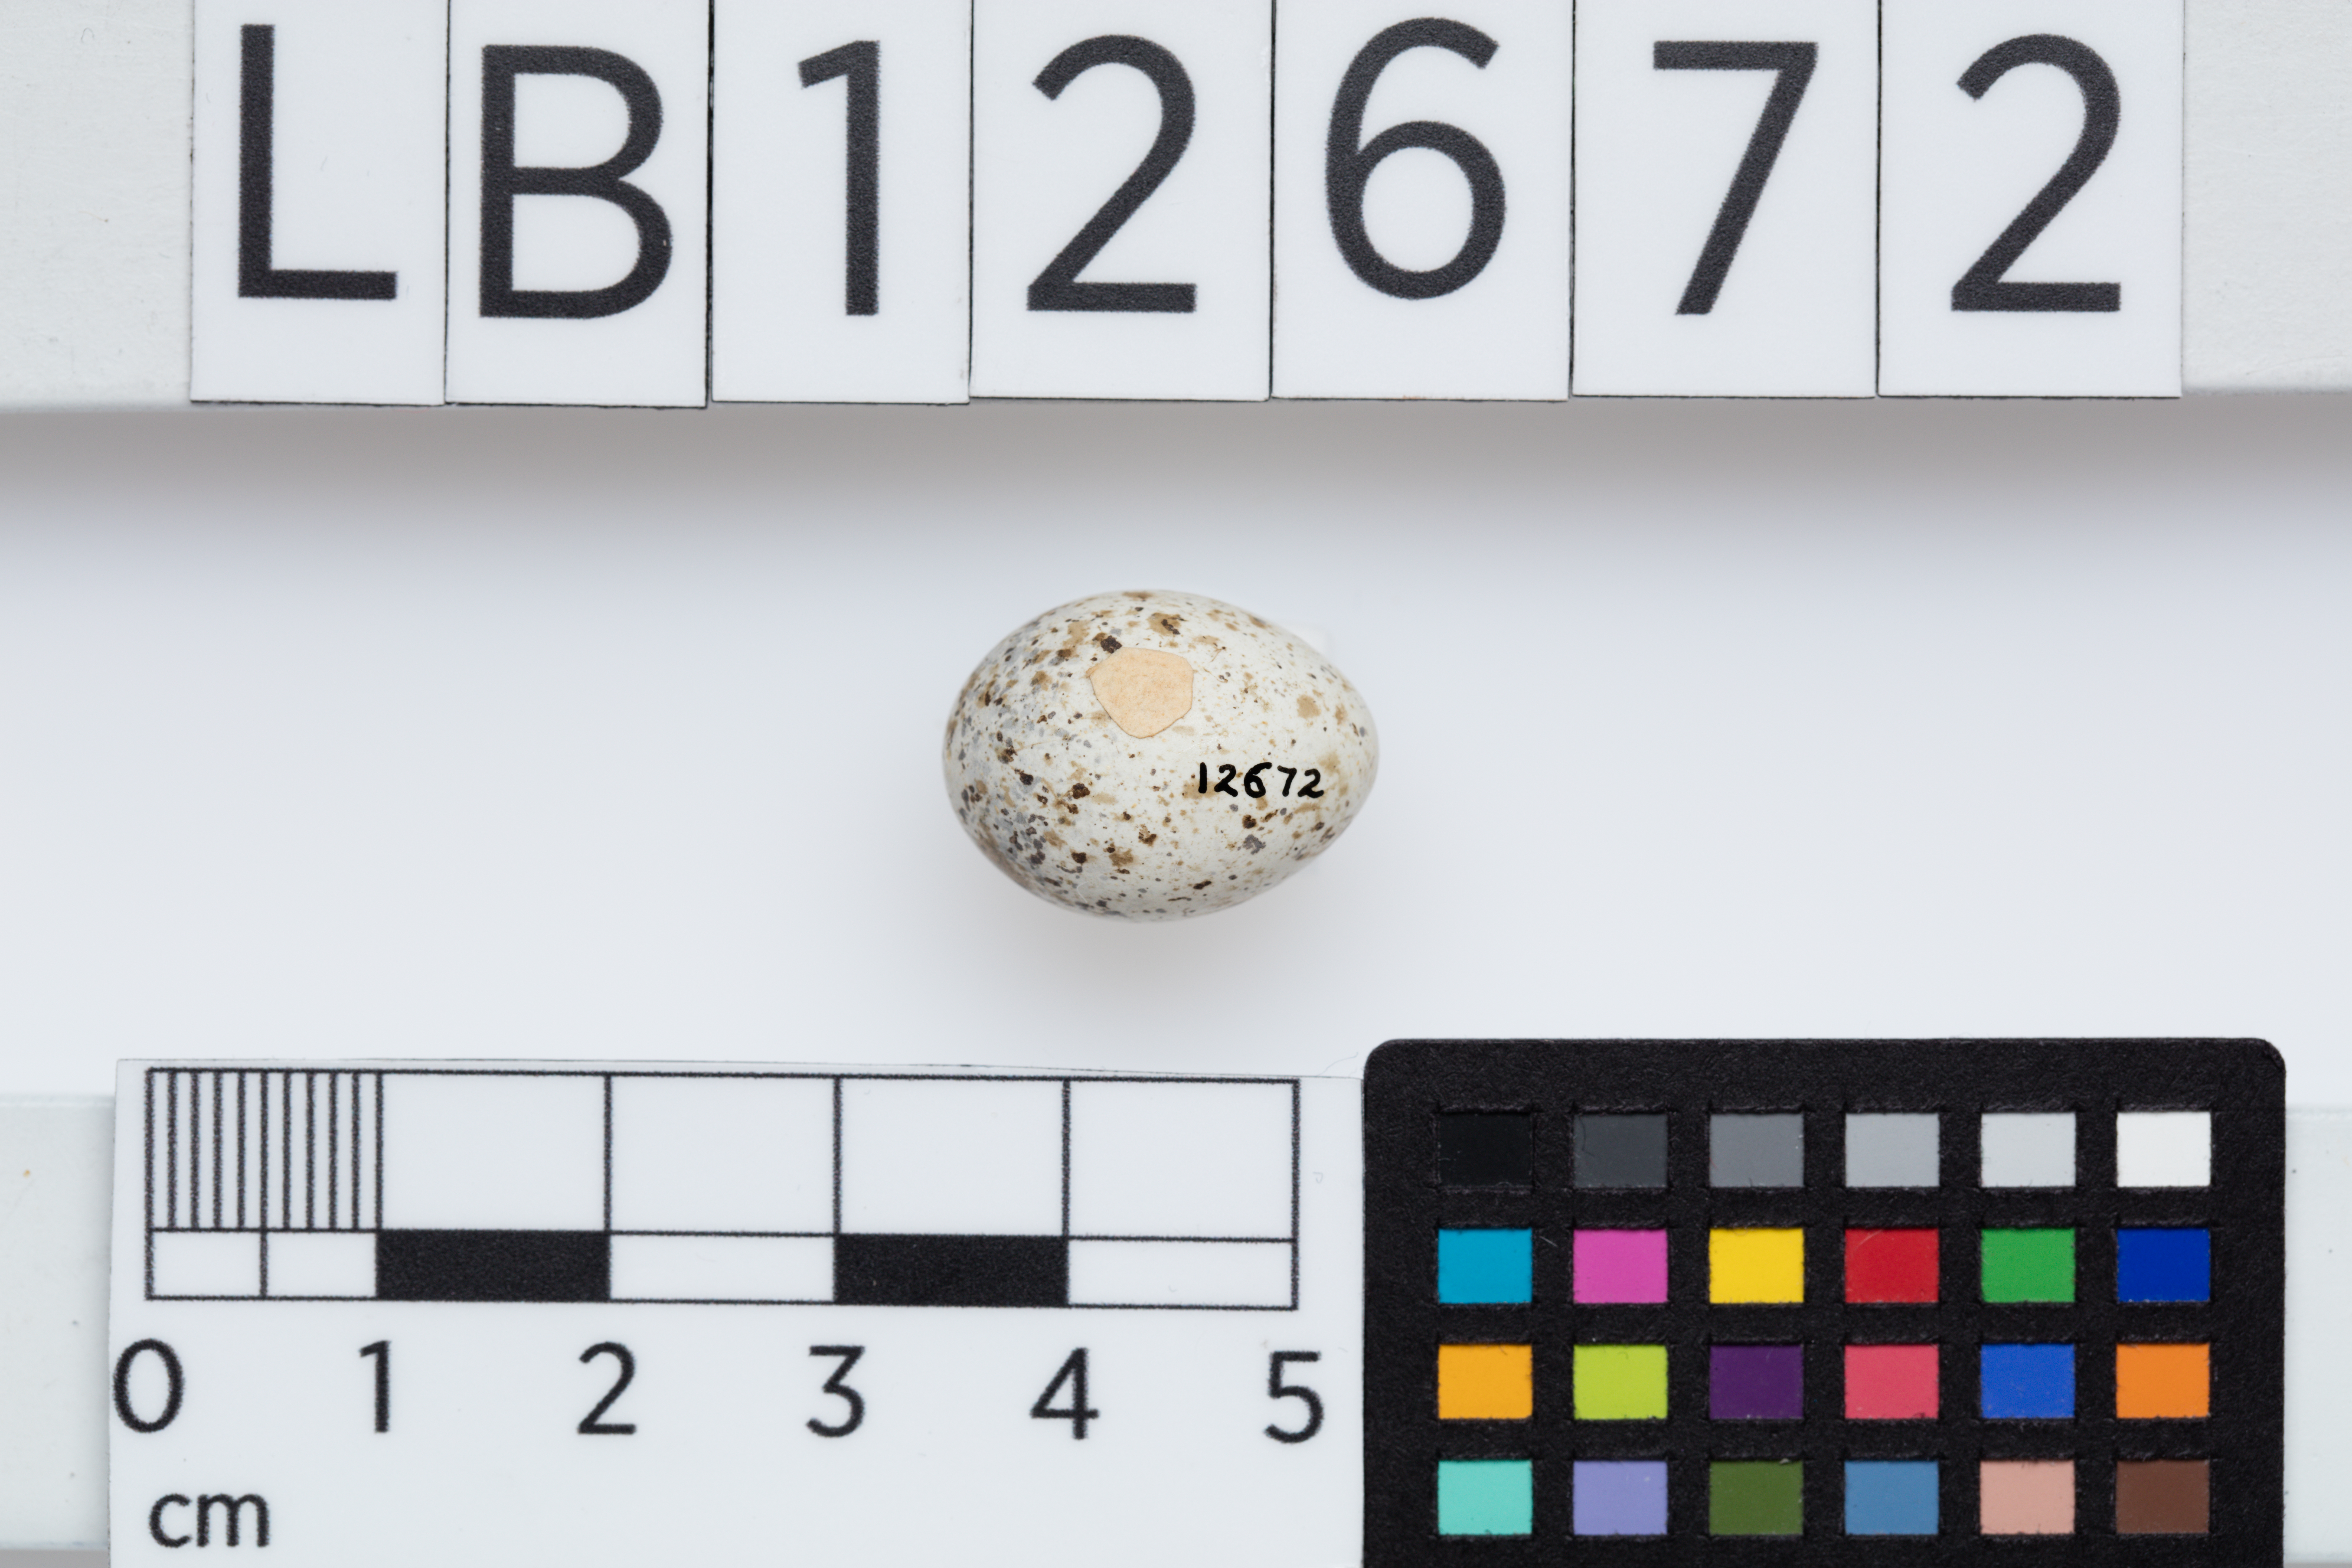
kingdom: Animalia
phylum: Chordata
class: Aves
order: Passeriformes
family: Petroicidae
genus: Petroica
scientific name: Petroica rosea
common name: Rose robin
